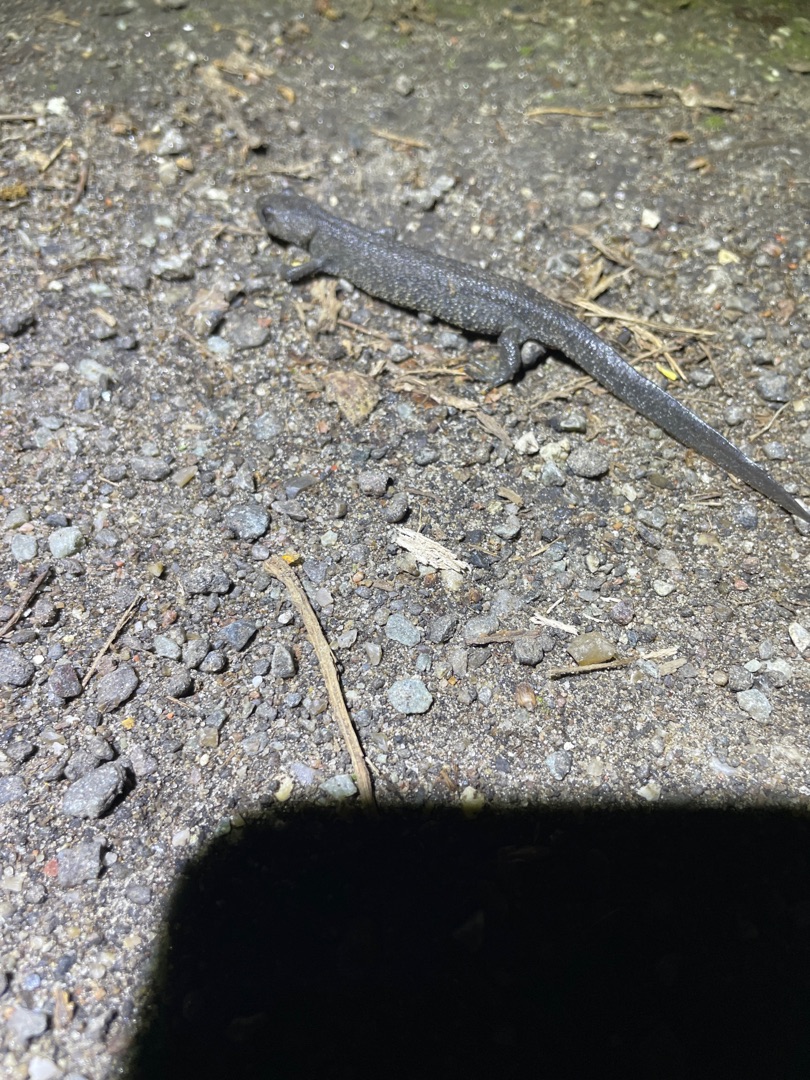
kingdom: Animalia
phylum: Chordata
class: Amphibia
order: Caudata
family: Salamandridae
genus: Triturus
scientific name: Triturus cristatus
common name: Stor vandsalamander
